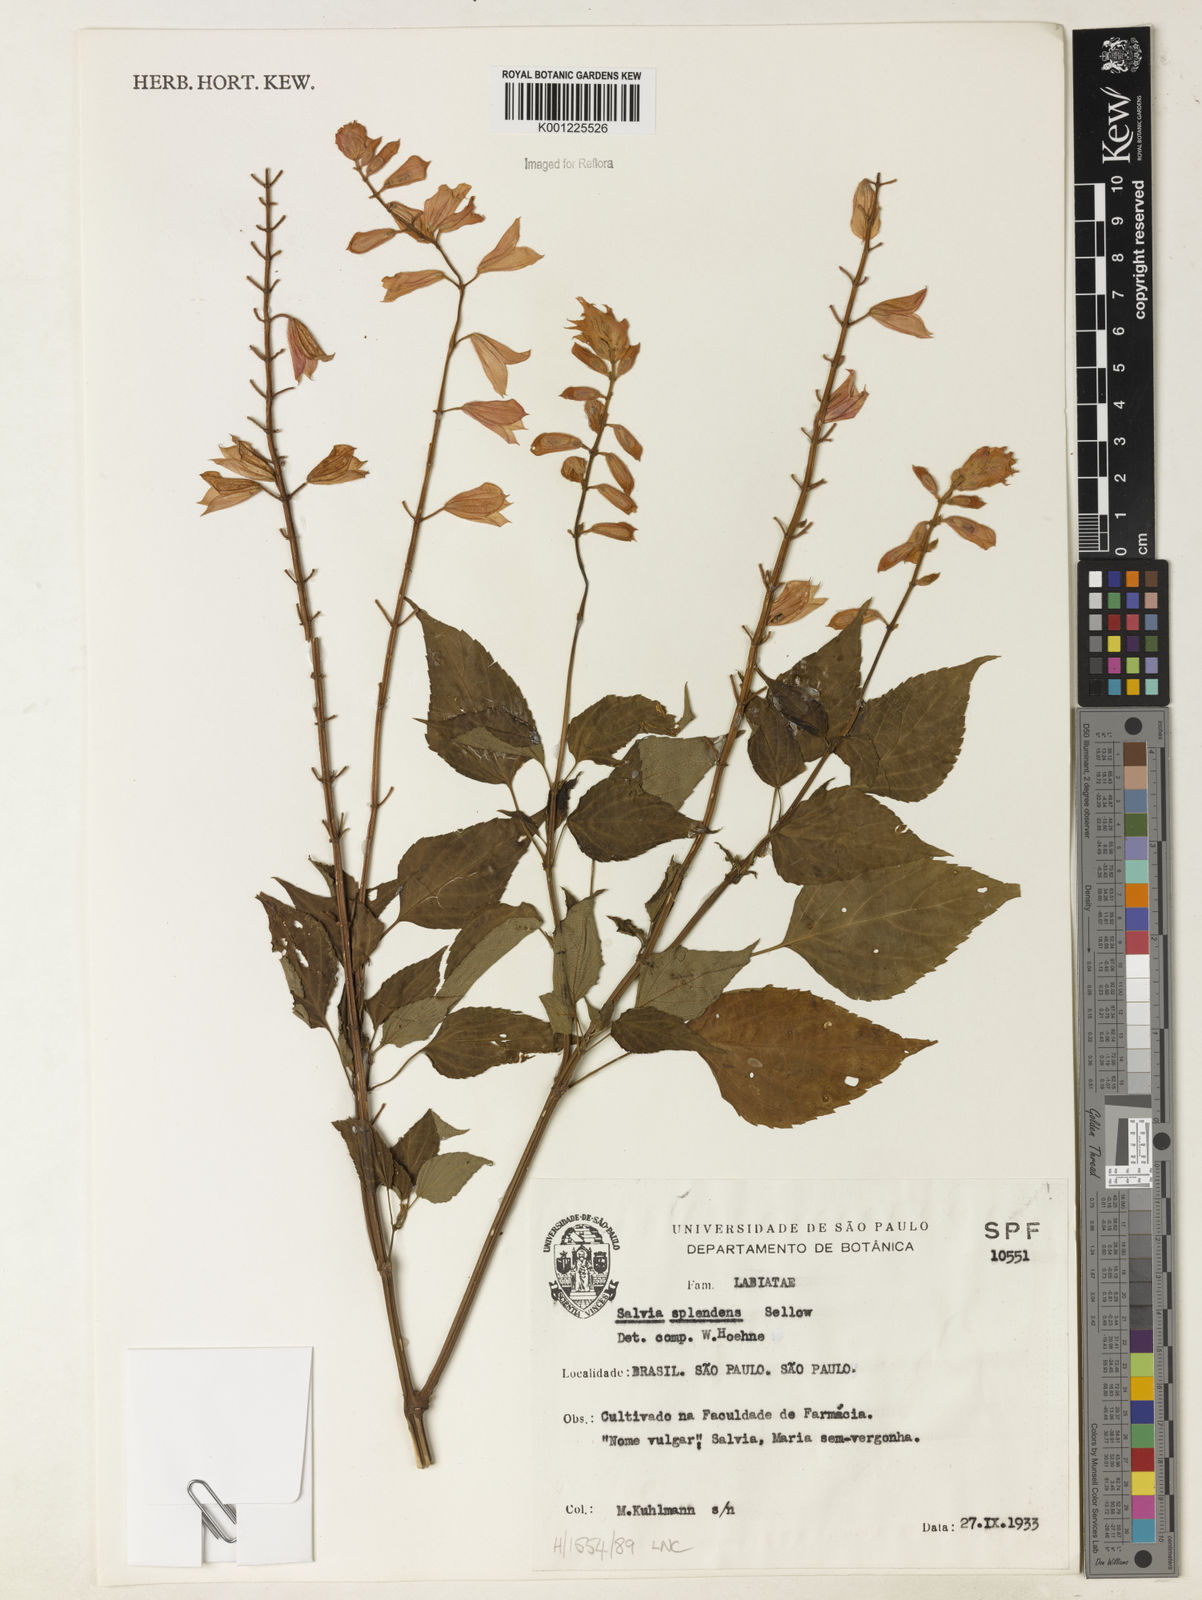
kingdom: Plantae
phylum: Tracheophyta
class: Magnoliopsida
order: Lamiales
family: Lamiaceae
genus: Salvia
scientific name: Salvia
